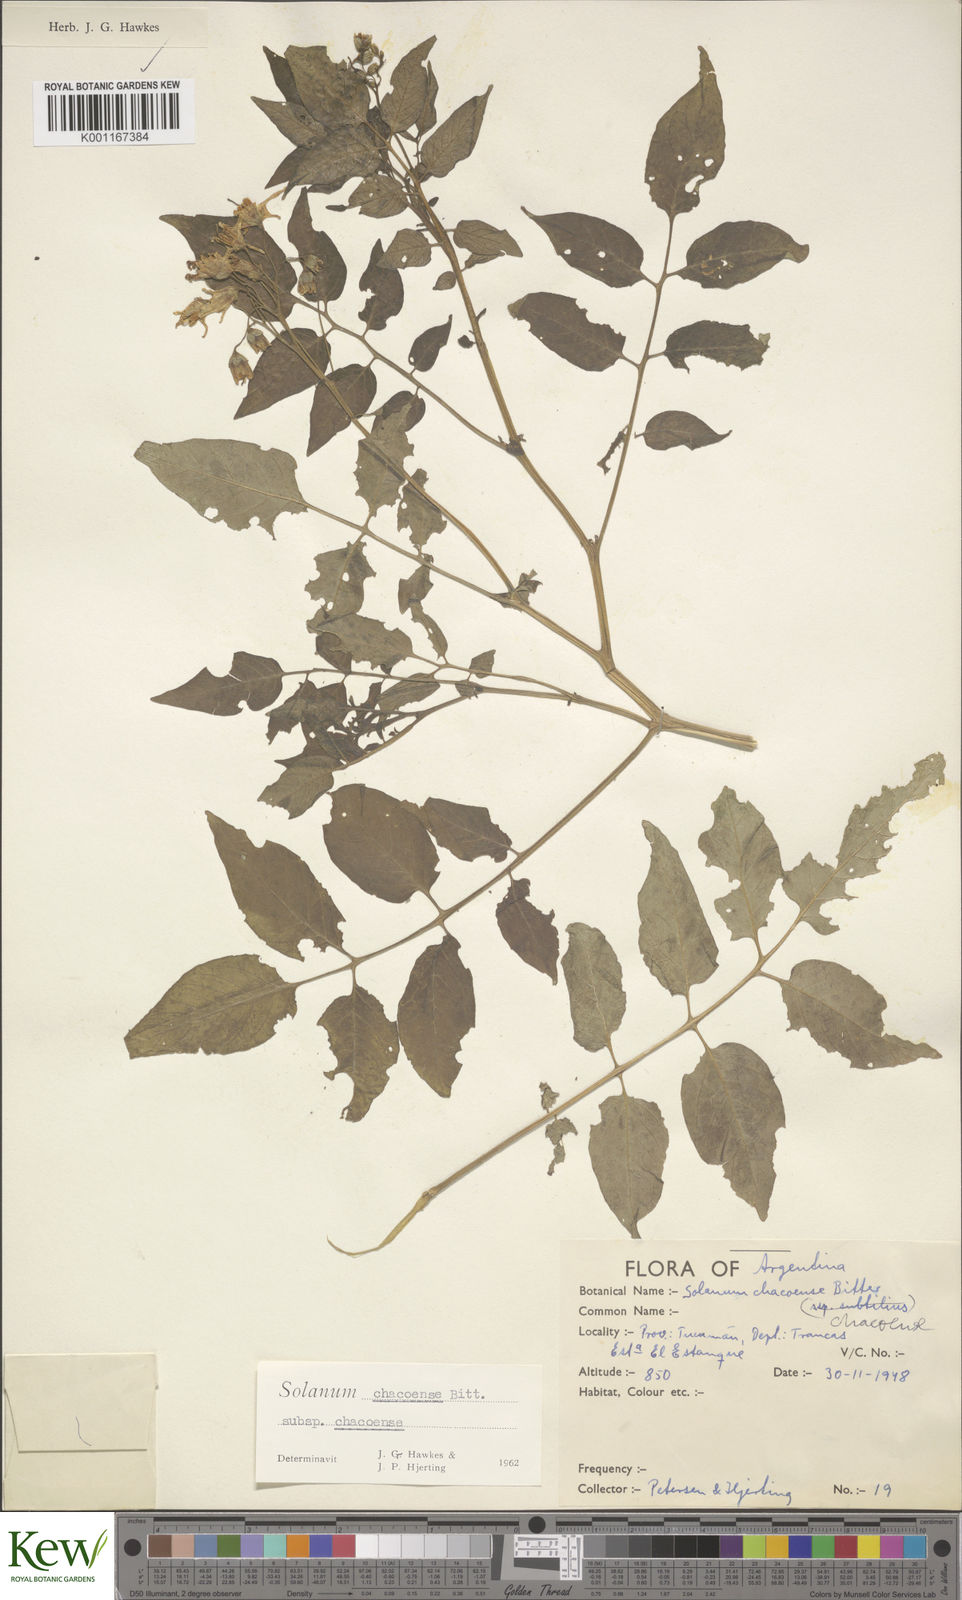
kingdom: Plantae
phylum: Tracheophyta
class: Magnoliopsida
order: Solanales
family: Solanaceae
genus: Solanum
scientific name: Solanum chacoense
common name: Chaco potato
